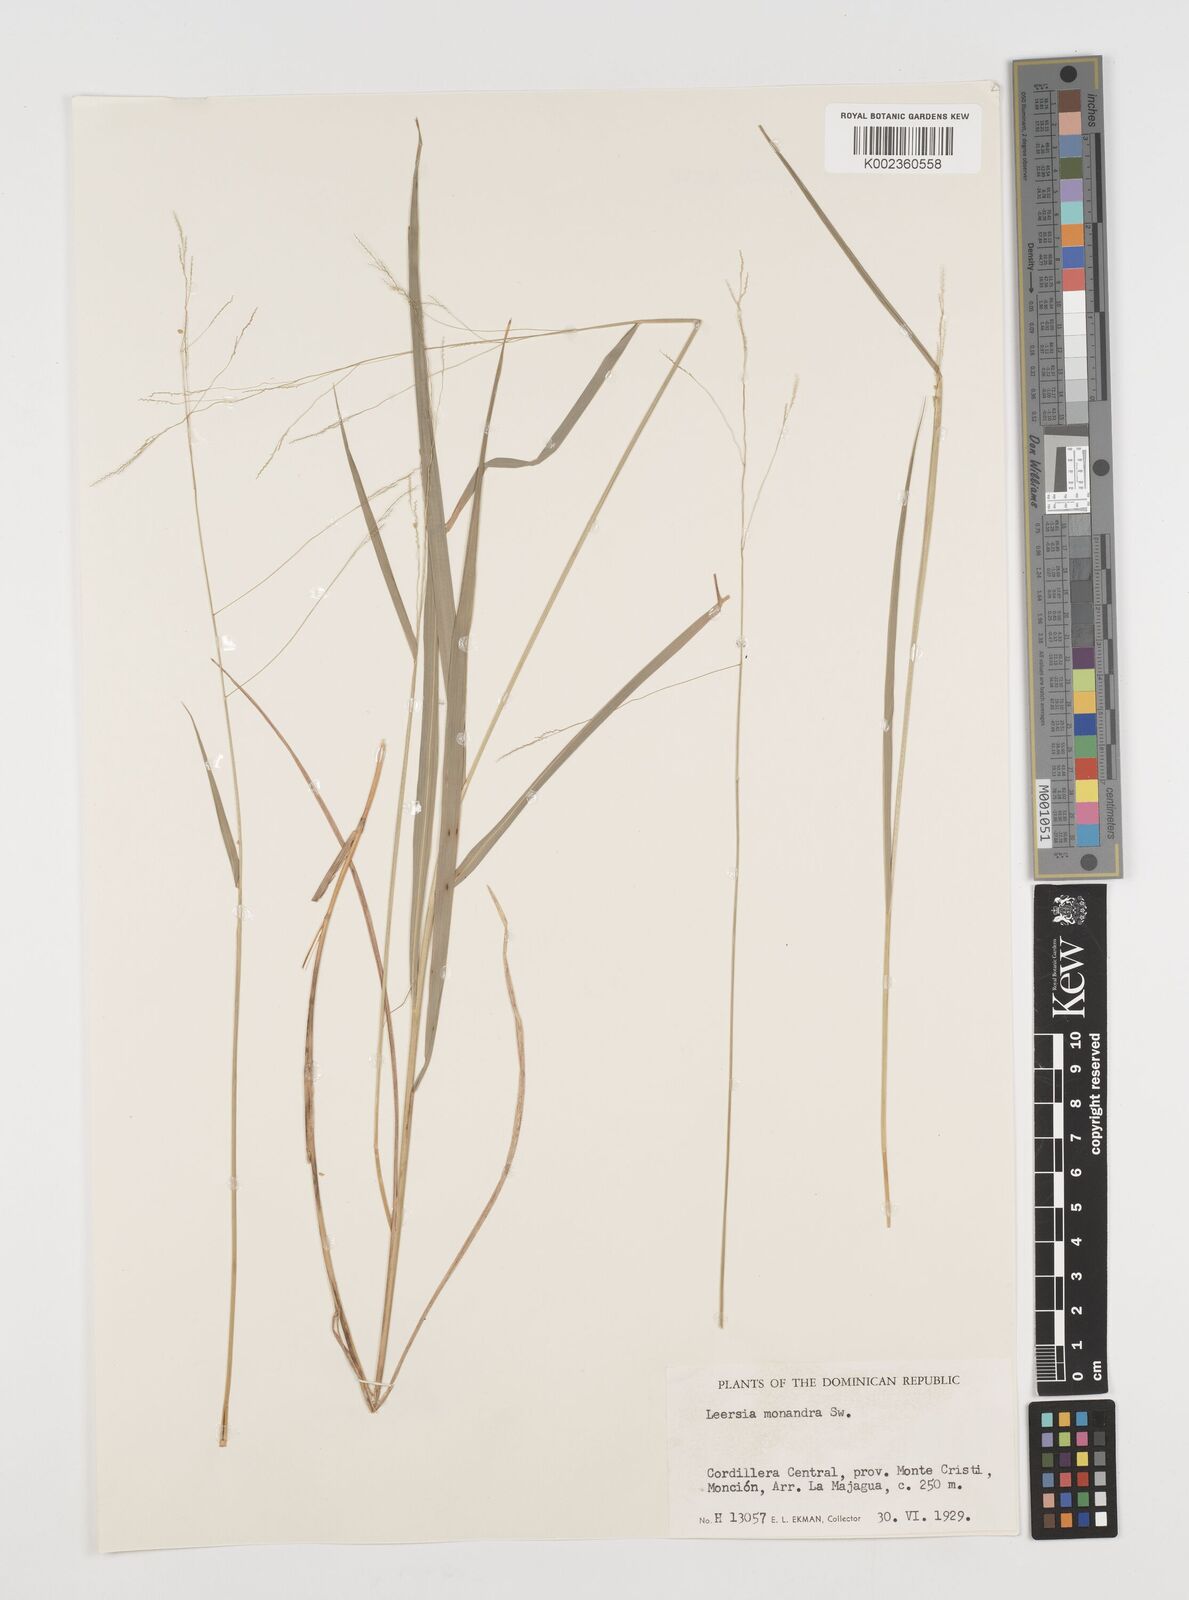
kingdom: Plantae
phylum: Tracheophyta
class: Liliopsida
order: Poales
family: Poaceae
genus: Leersia
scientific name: Leersia monandra
